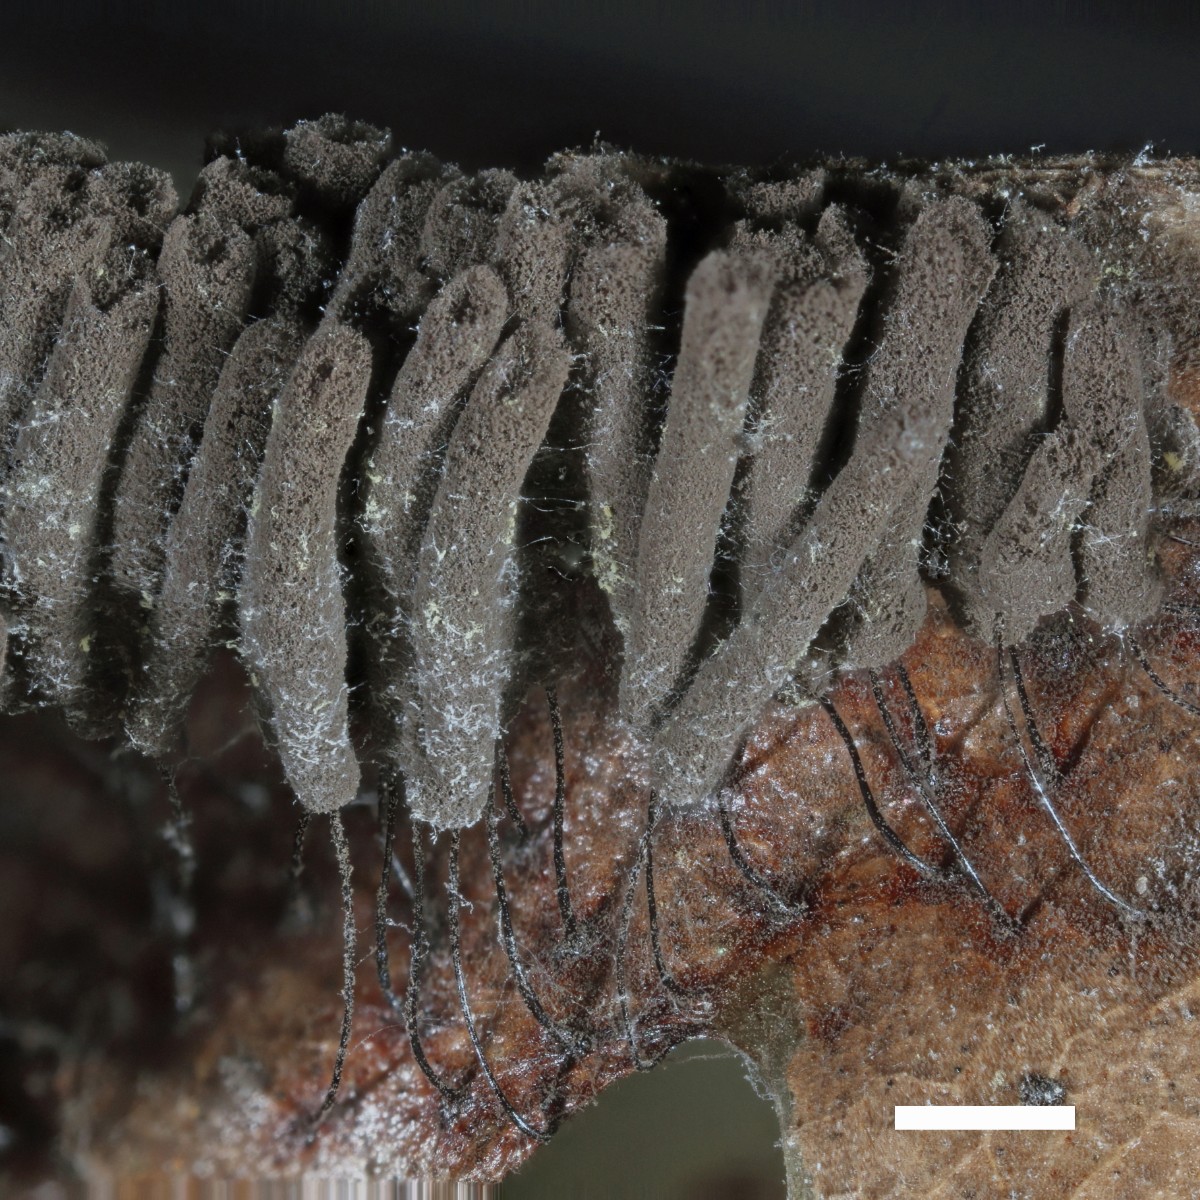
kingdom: Protozoa
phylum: Mycetozoa
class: Myxomycetes
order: Stemonitidales
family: Stemonitidaceae
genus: Stemonitis
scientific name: Stemonitis fusca
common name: sodbrun støvkølle
